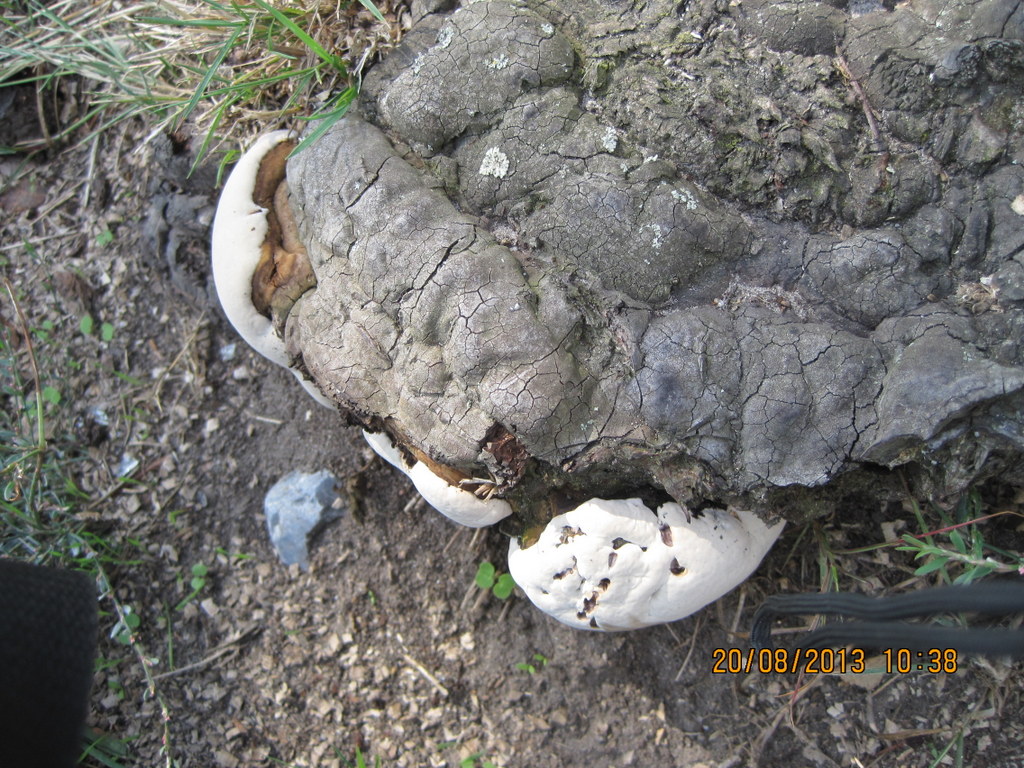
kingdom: Fungi
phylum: Basidiomycota
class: Agaricomycetes
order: Polyporales
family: Polyporaceae
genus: Ganoderma
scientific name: Ganoderma applanatum
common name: flad lakporesvamp
